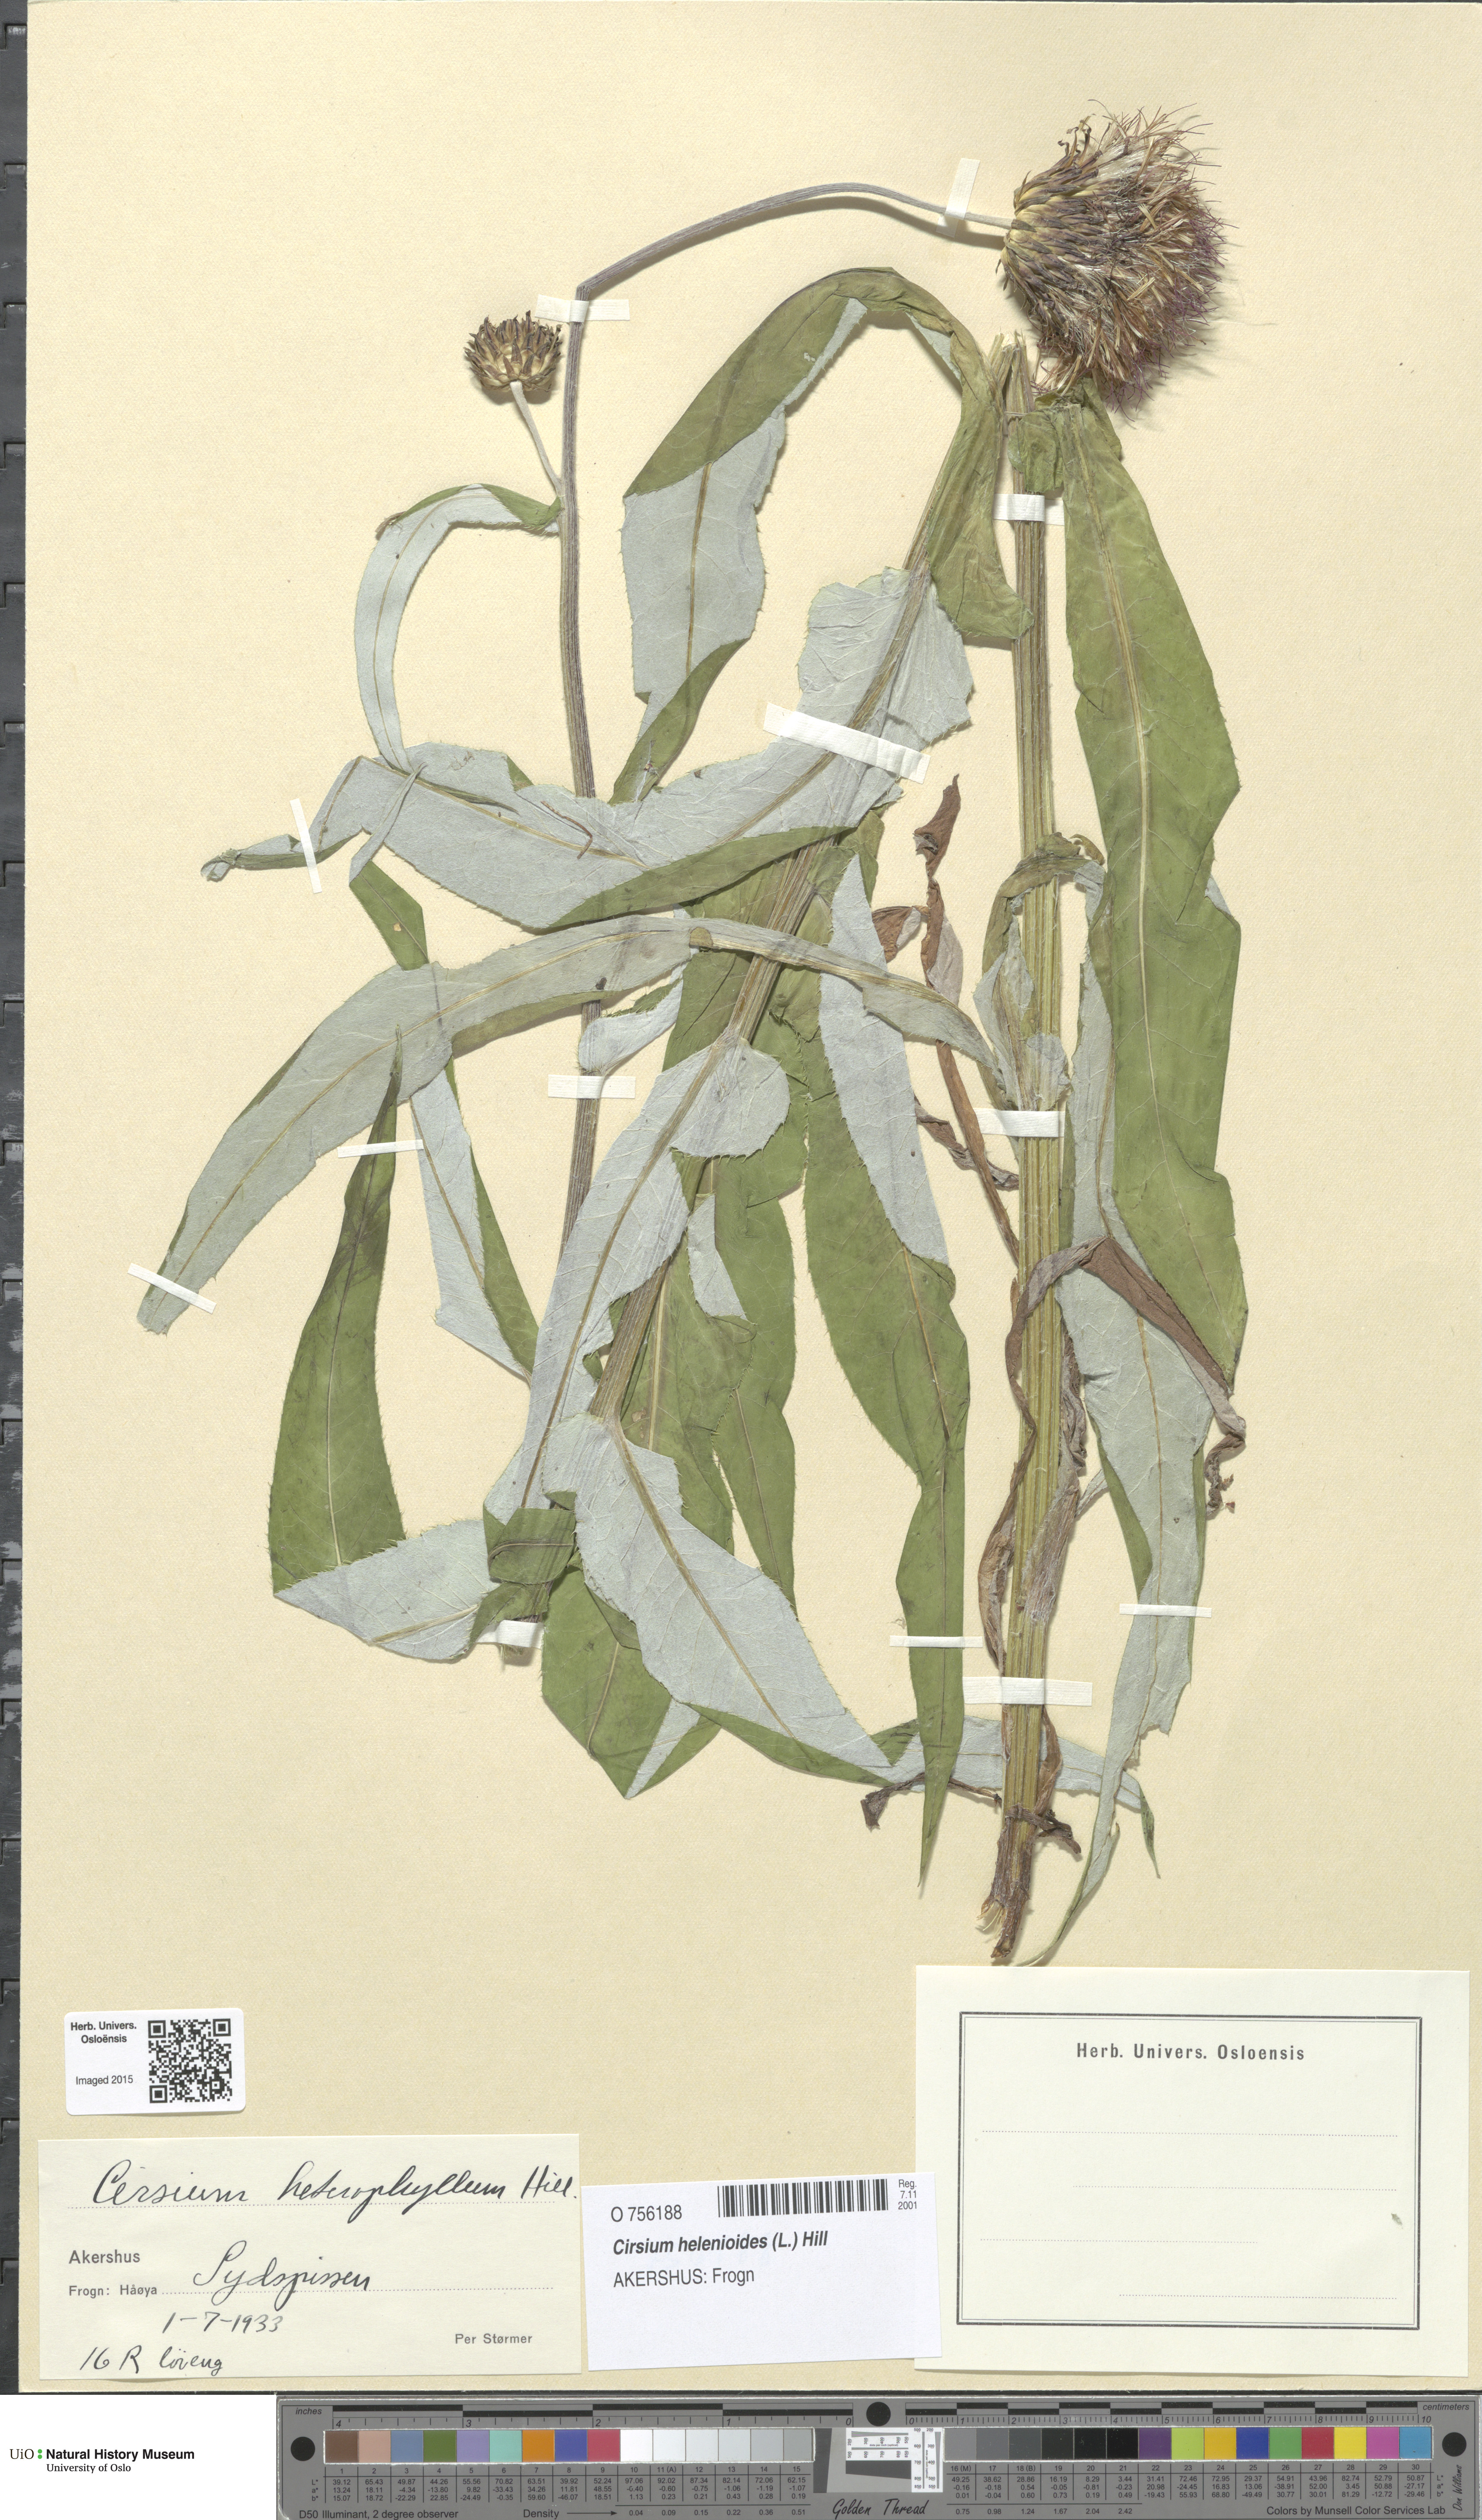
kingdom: Plantae
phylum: Tracheophyta
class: Magnoliopsida
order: Asterales
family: Asteraceae
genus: Cirsium
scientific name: Cirsium heterophyllum
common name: Melancholy thistle
